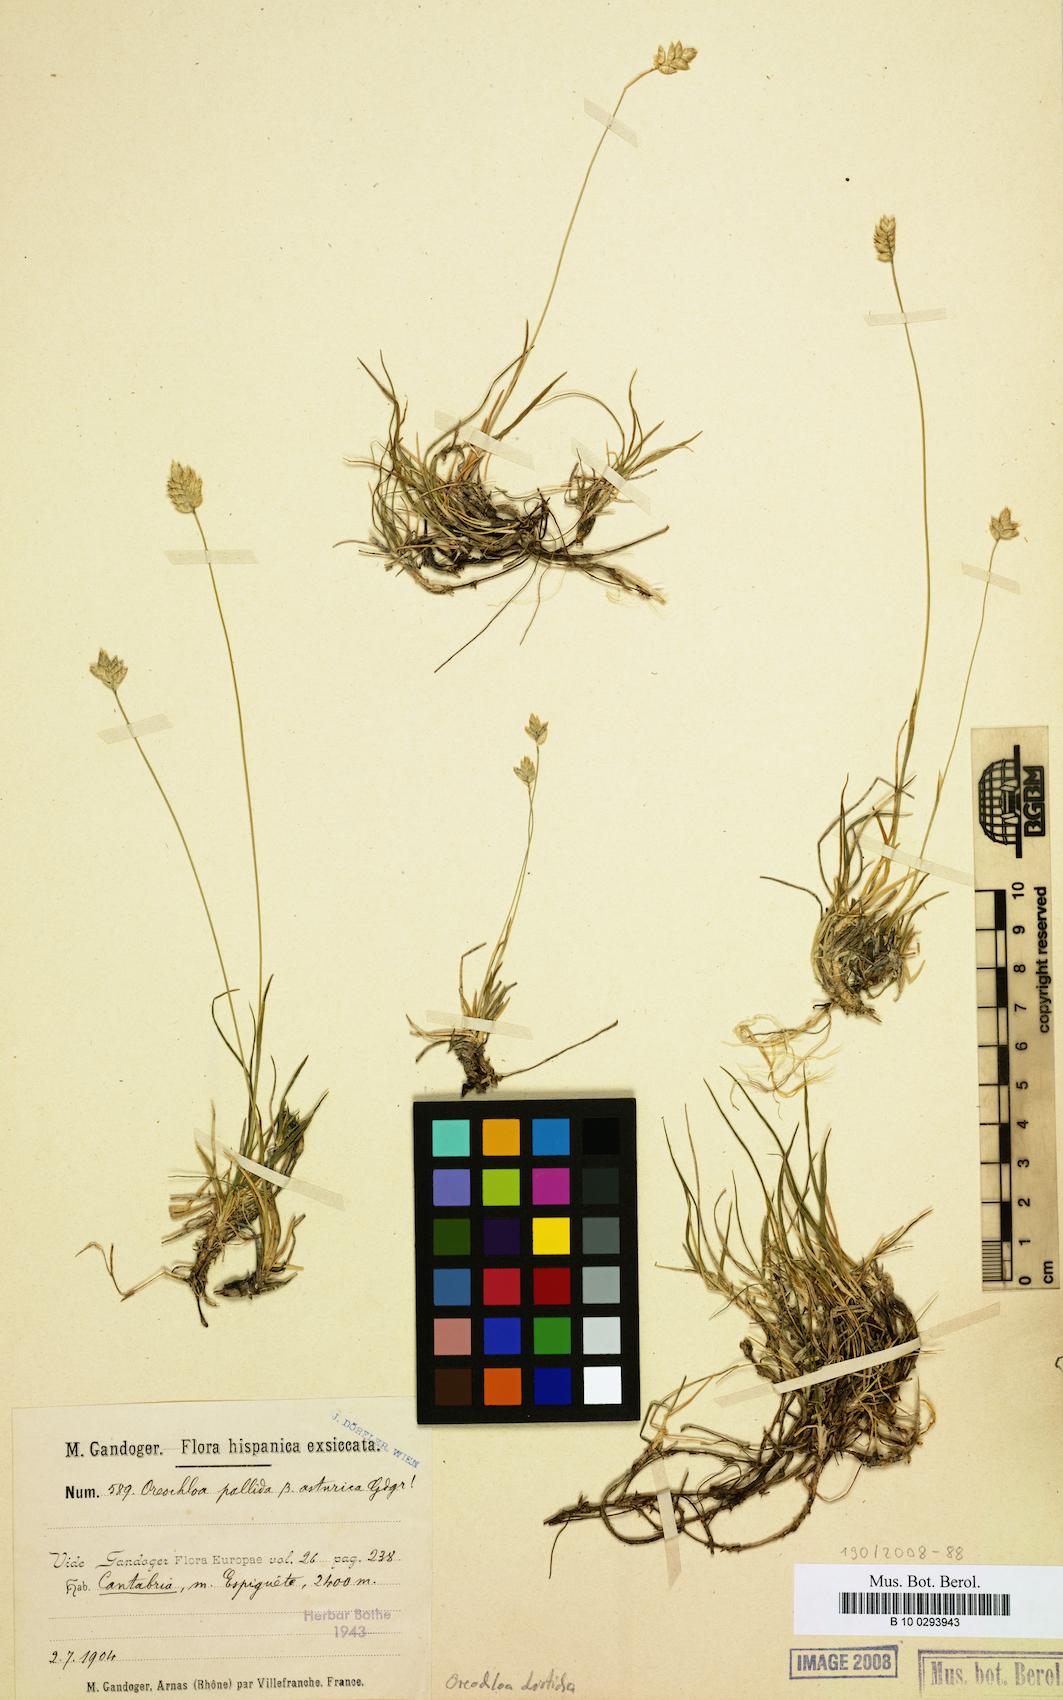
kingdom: Plantae
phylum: Tracheophyta
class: Liliopsida
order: Poales
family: Poaceae
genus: Oreochloa
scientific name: Oreochloa disticha
